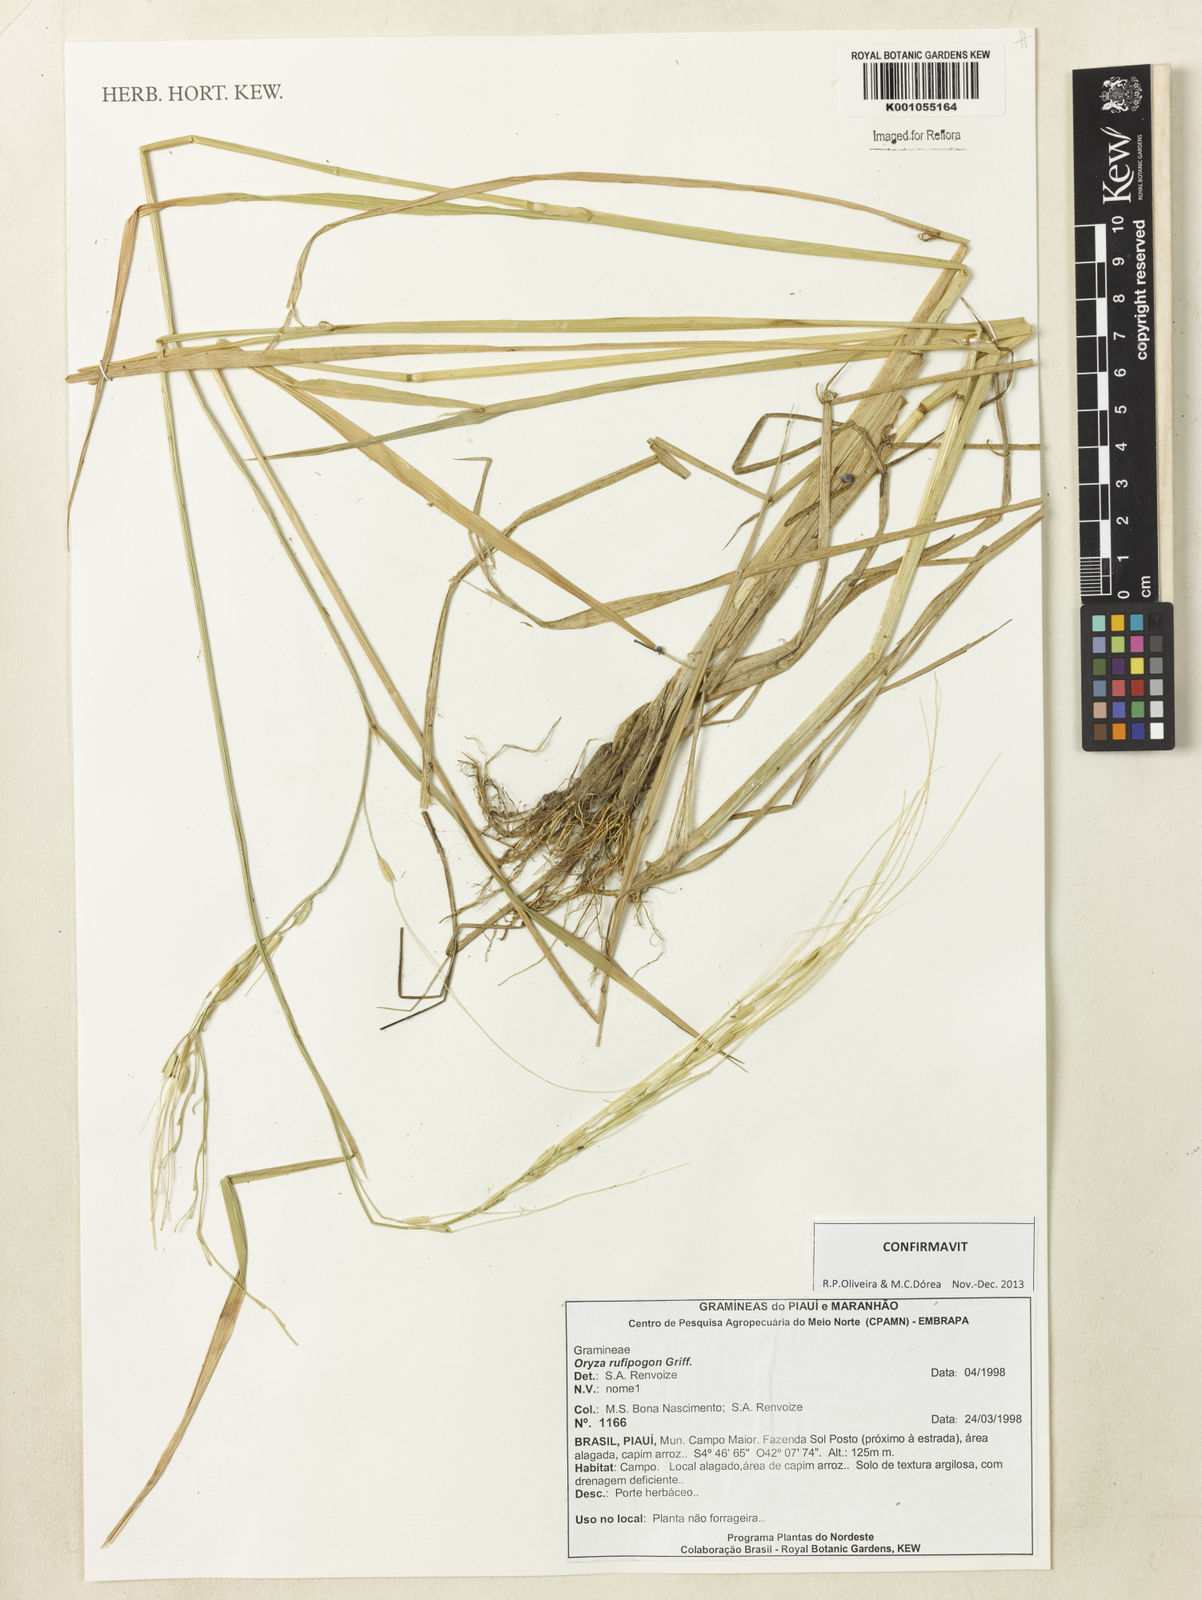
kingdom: Plantae
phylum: Tracheophyta
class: Liliopsida
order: Poales
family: Poaceae
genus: Oryza
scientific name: Oryza rufipogon
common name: Red rice
